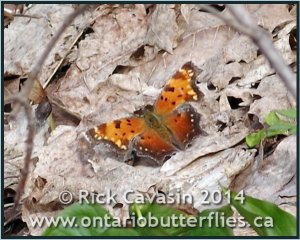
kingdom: Animalia
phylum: Arthropoda
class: Insecta
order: Lepidoptera
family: Nymphalidae
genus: Polygonia
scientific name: Polygonia progne
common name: Gray Comma
